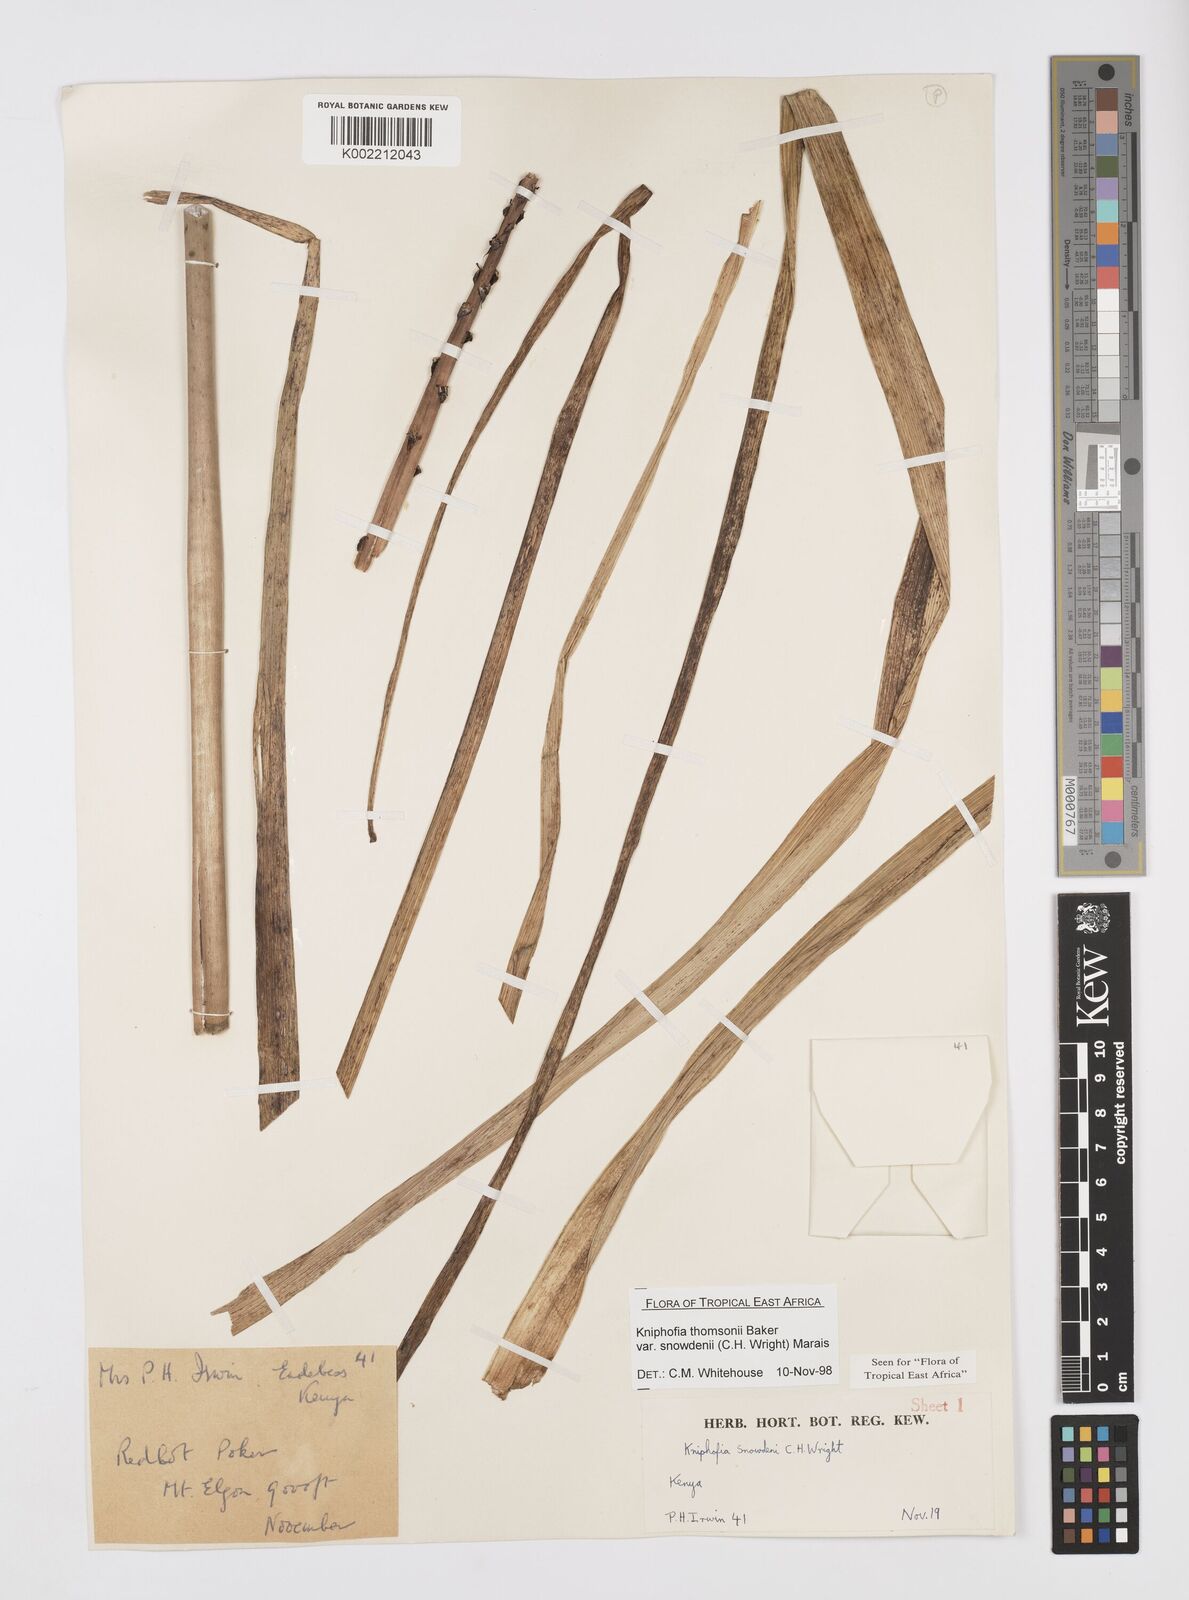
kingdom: Plantae
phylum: Tracheophyta
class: Liliopsida
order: Asparagales
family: Asphodelaceae
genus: Kniphofia
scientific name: Kniphofia
